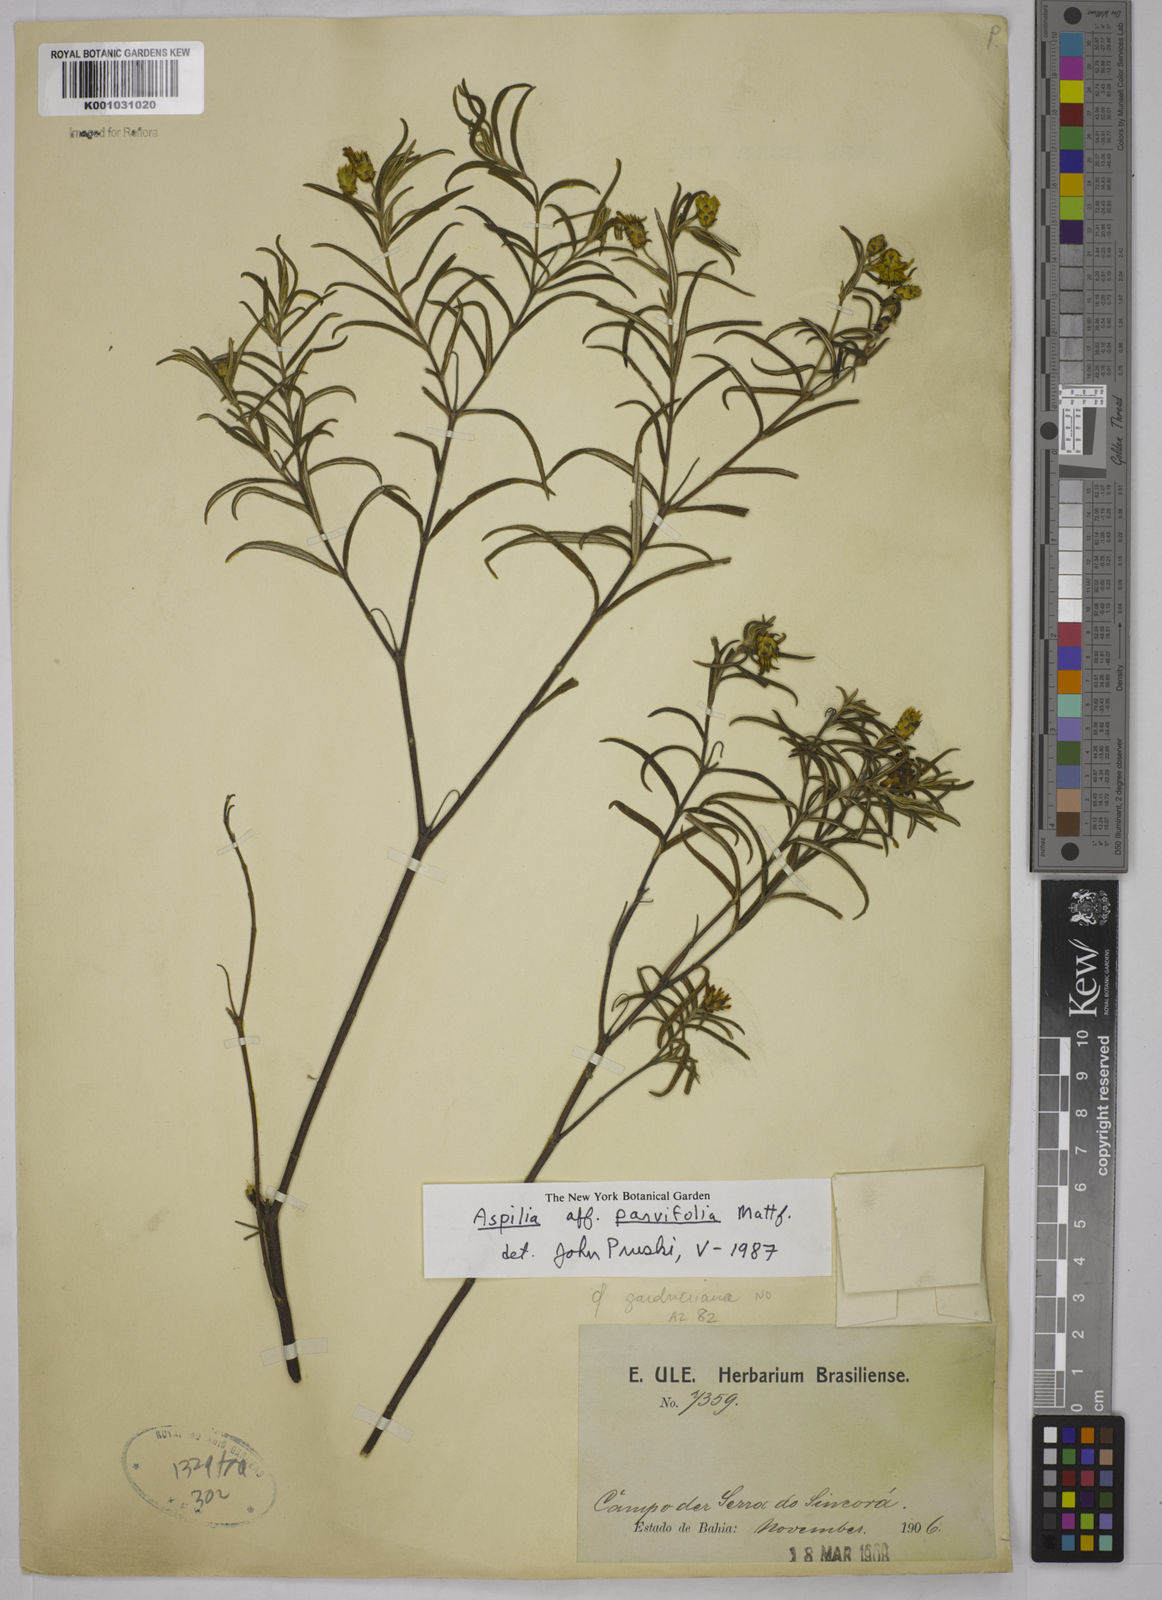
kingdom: Plantae
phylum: Tracheophyta
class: Magnoliopsida
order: Asterales
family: Asteraceae
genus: Aspilia
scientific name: Aspilia
